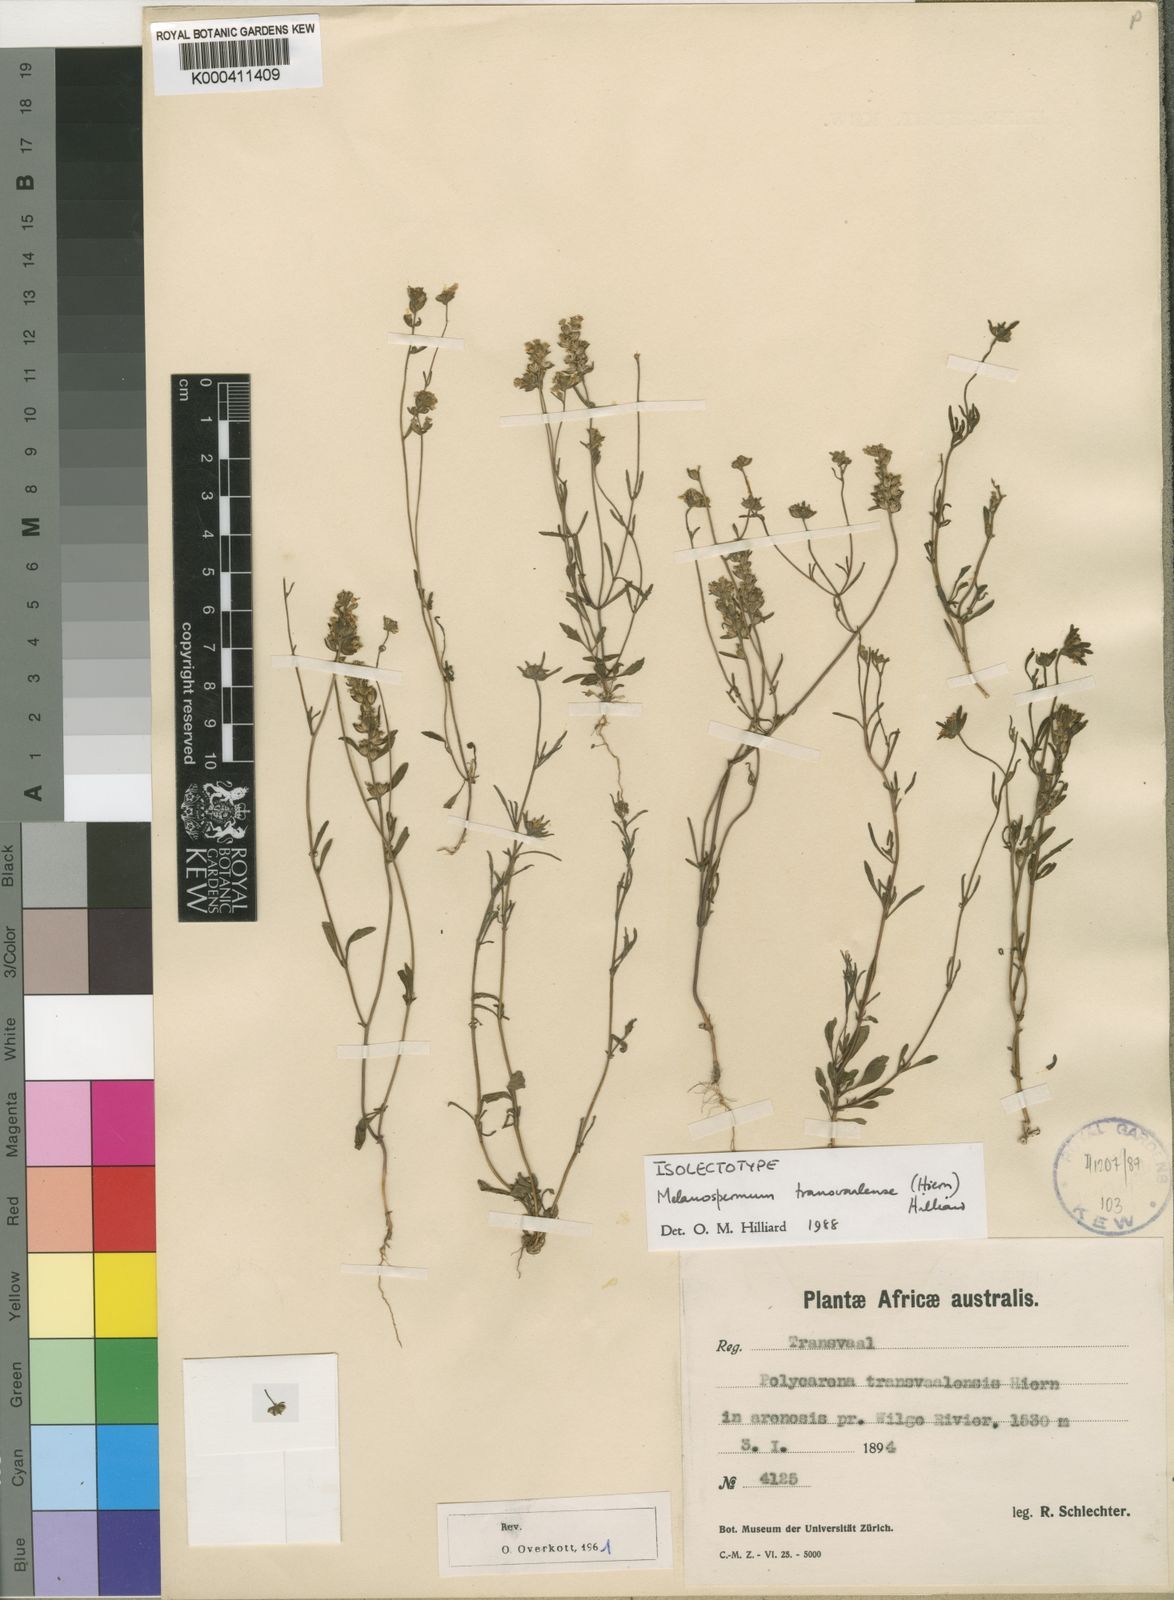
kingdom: Plantae
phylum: Tracheophyta
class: Magnoliopsida
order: Lamiales
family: Scrophulariaceae
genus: Melanospermum
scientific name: Melanospermum transvaalense
